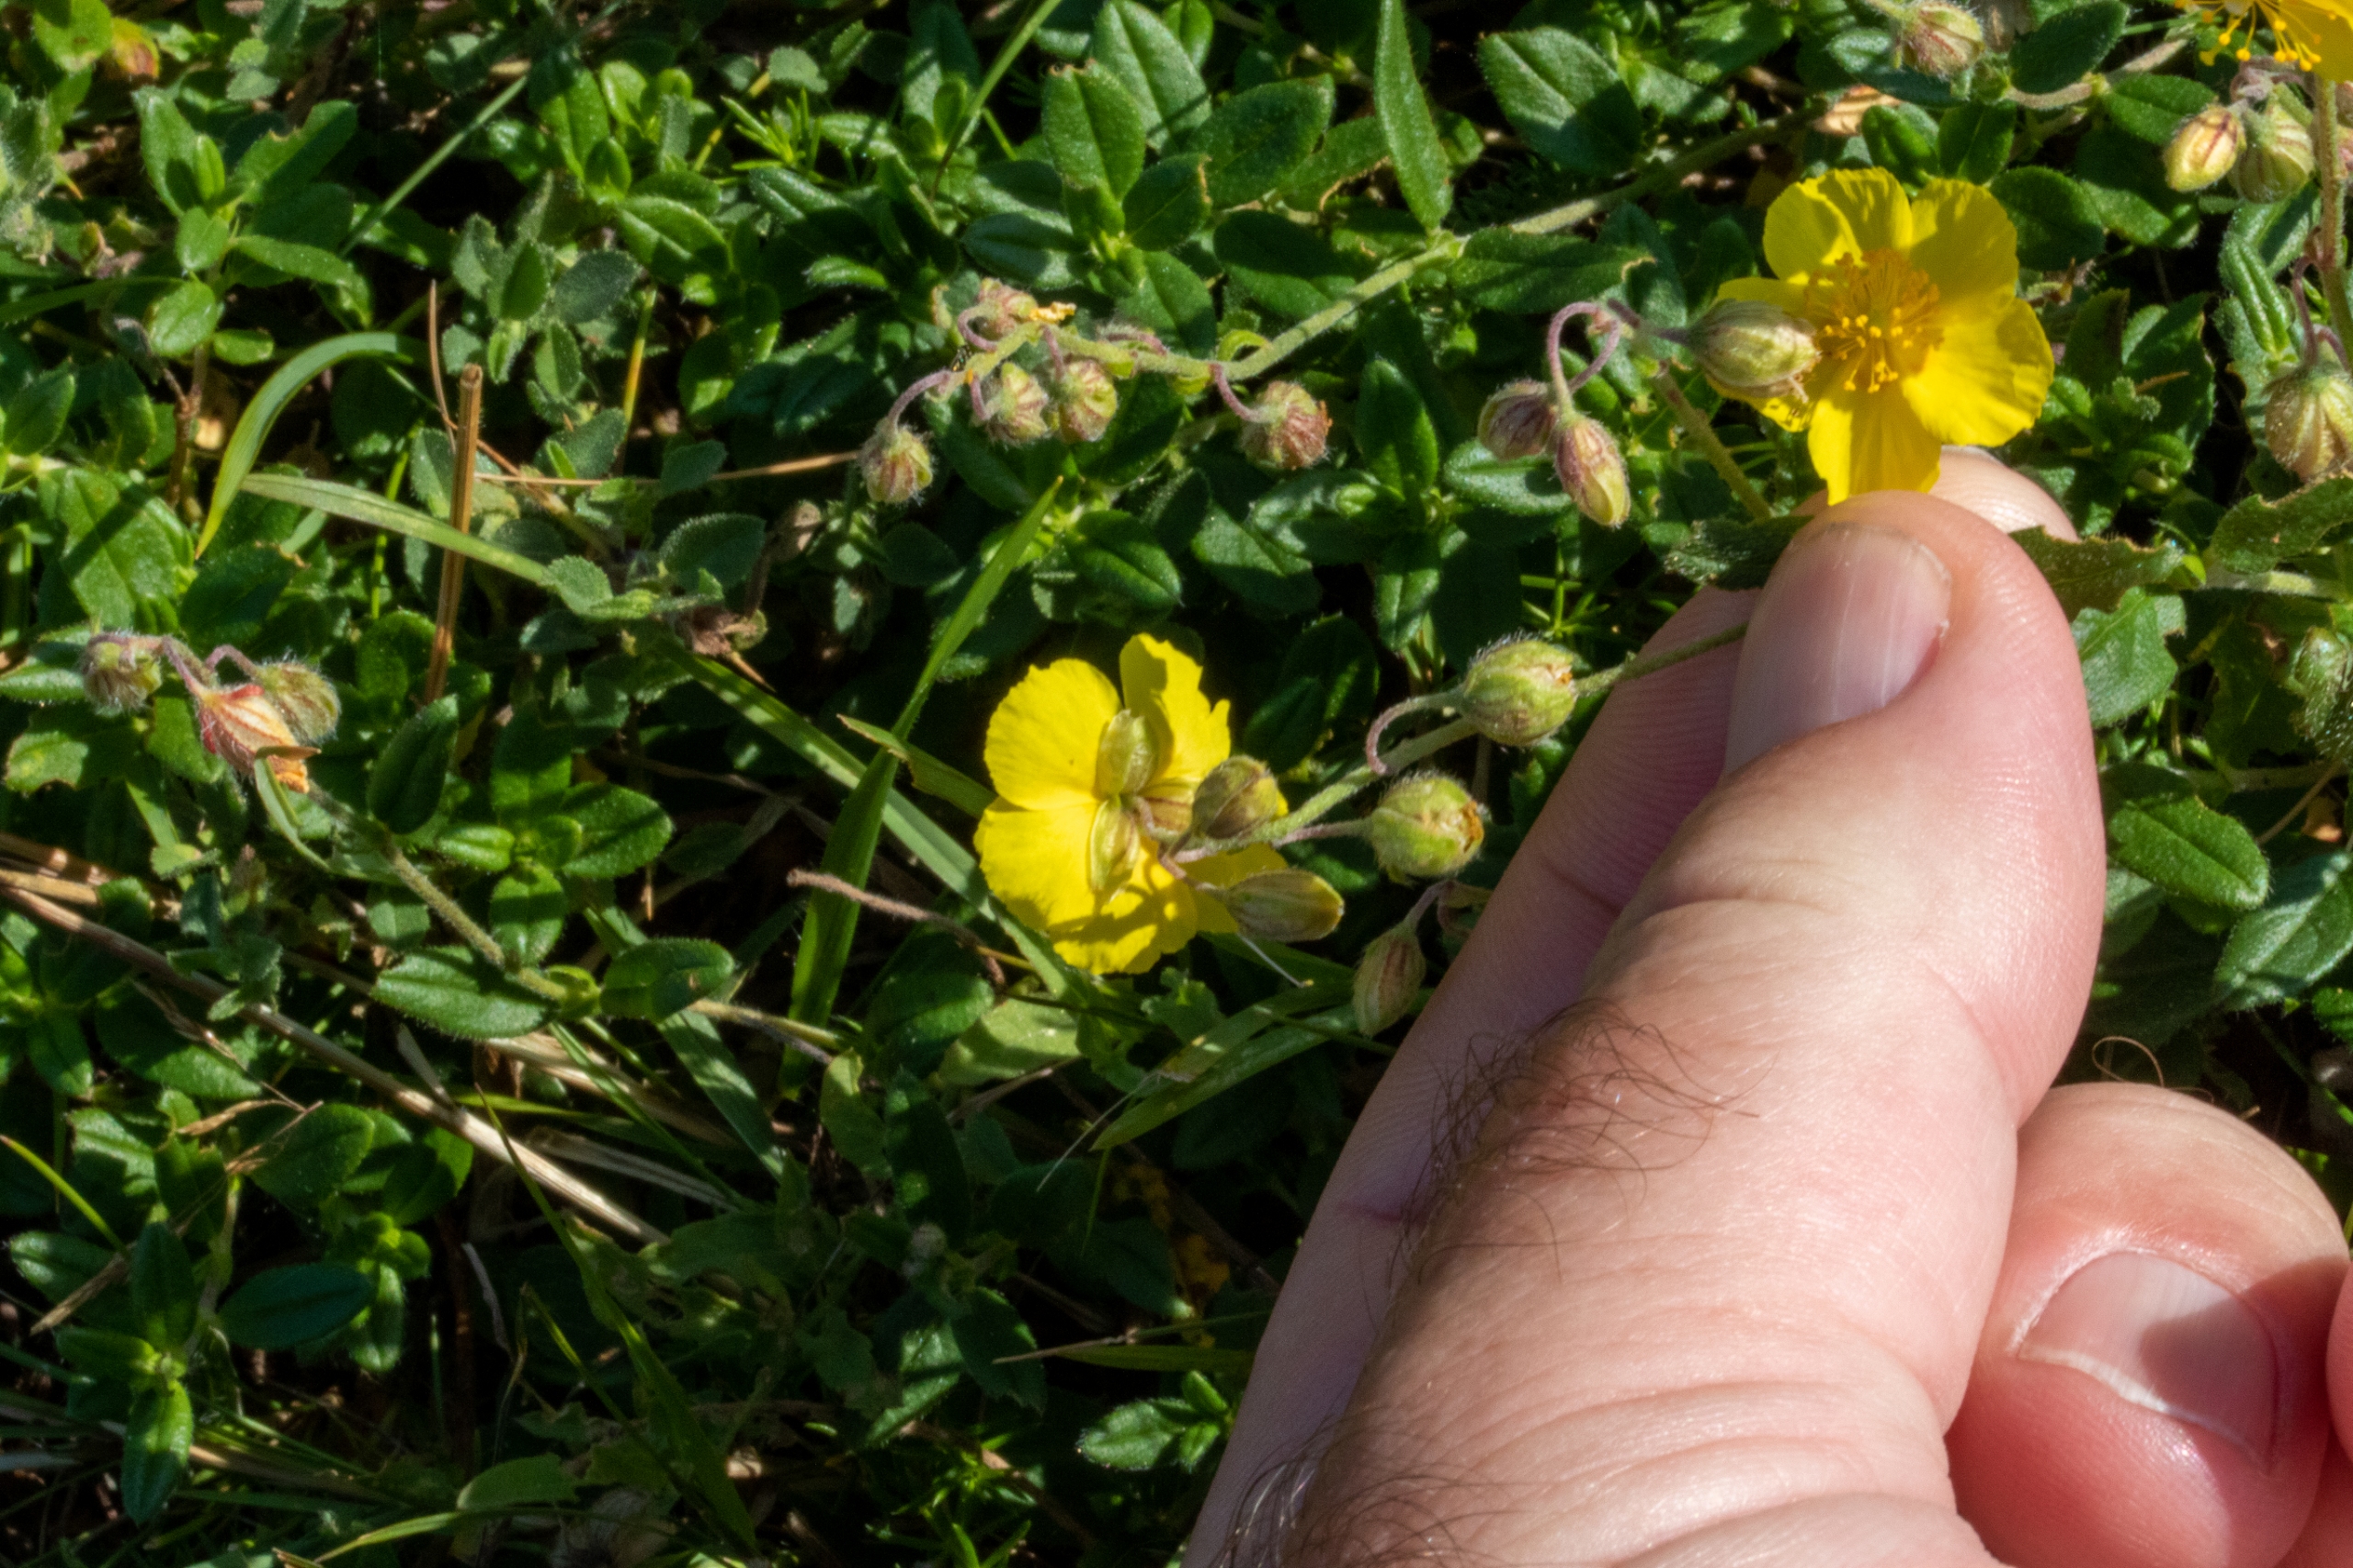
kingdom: Plantae
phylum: Tracheophyta
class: Magnoliopsida
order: Malvales
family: Cistaceae
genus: Helianthemum
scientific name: Helianthemum nummularium
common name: Filtet soløje
